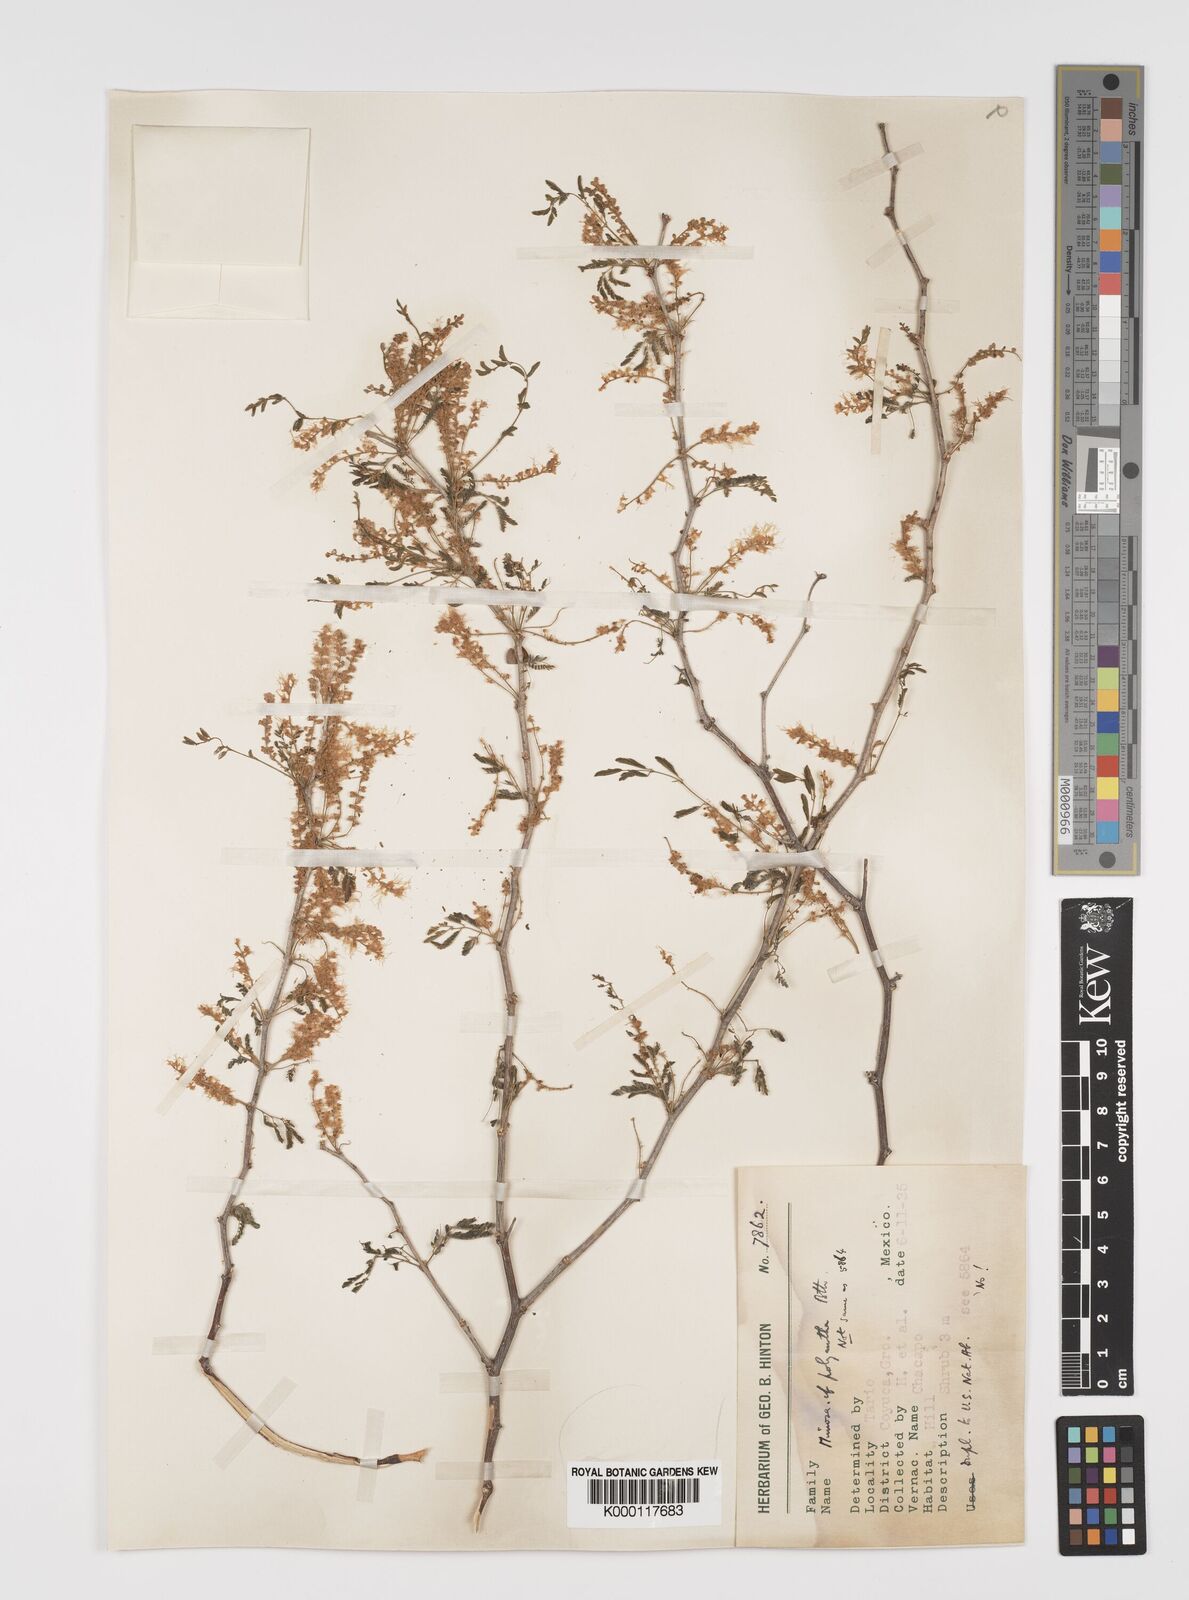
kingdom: Plantae
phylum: Tracheophyta
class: Magnoliopsida
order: Fabales
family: Fabaceae
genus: Mimosa
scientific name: Mimosa polyantha
